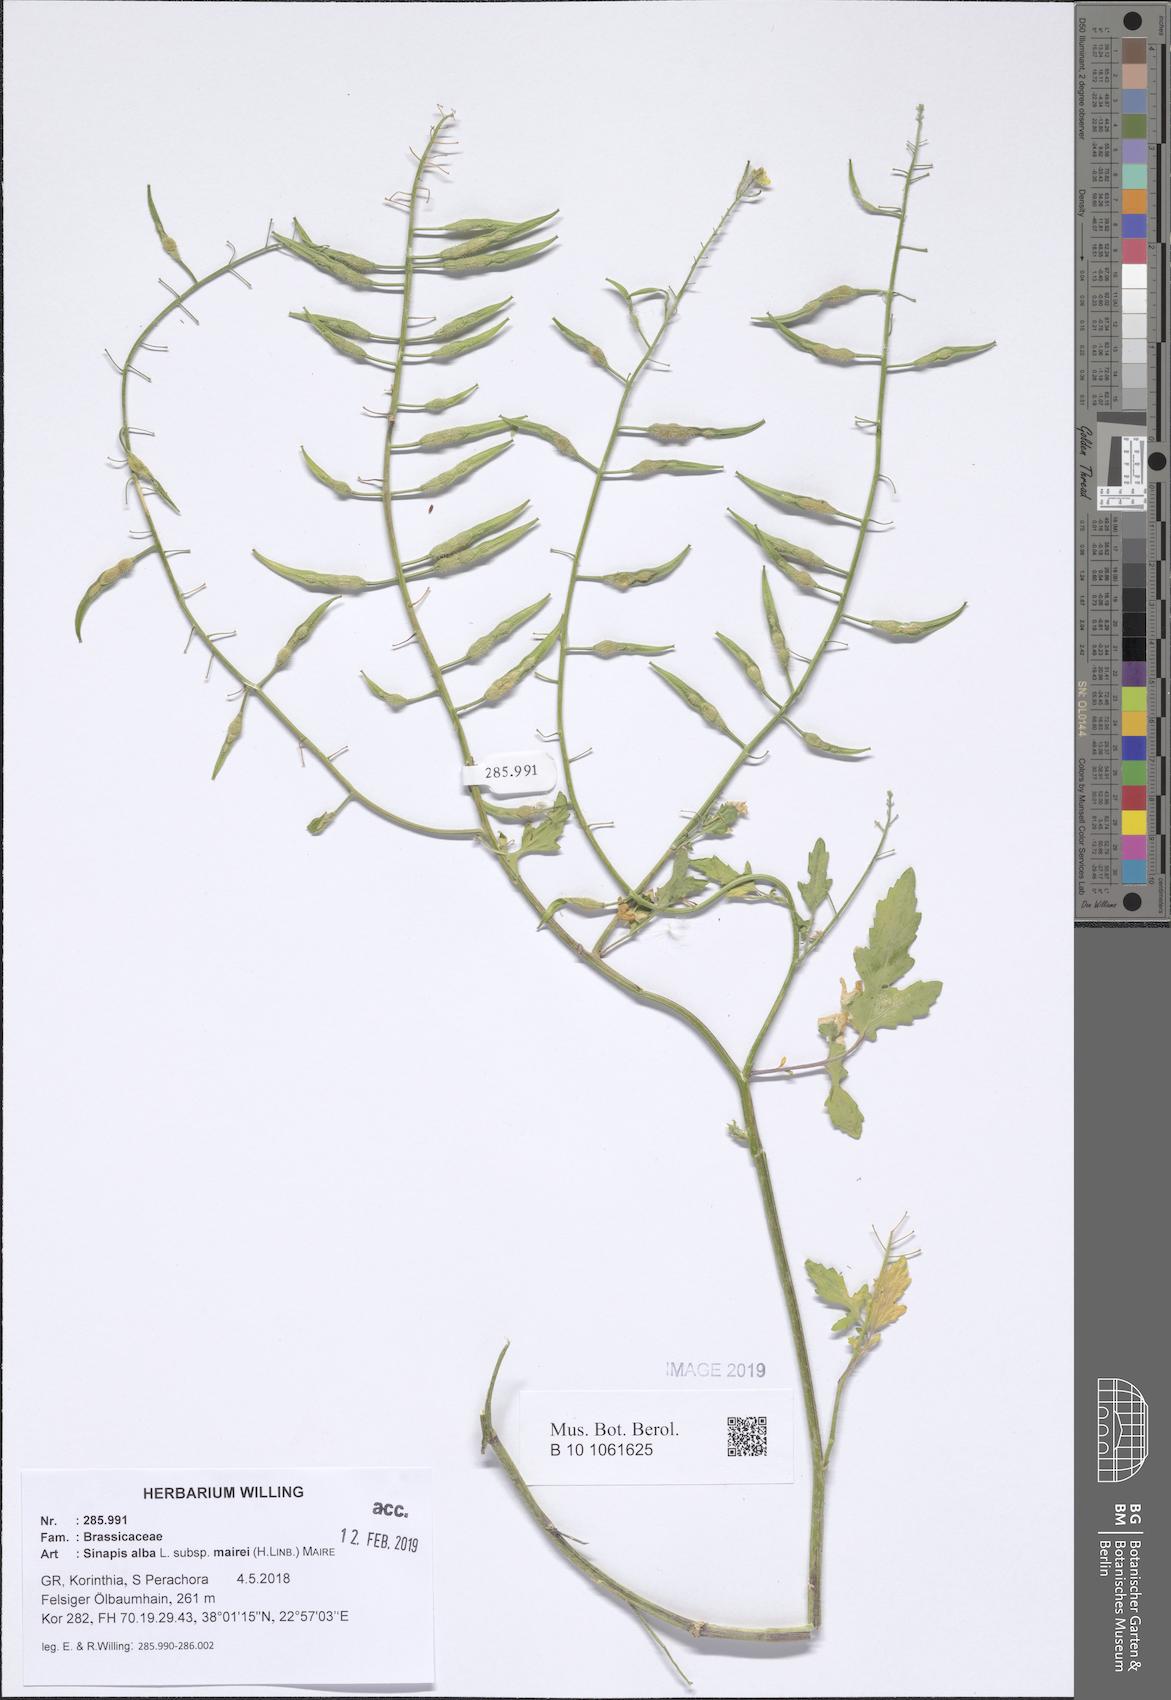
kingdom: Plantae
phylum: Tracheophyta
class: Magnoliopsida
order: Brassicales
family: Brassicaceae
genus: Sinapis
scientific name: Sinapis alba
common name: White mustard
